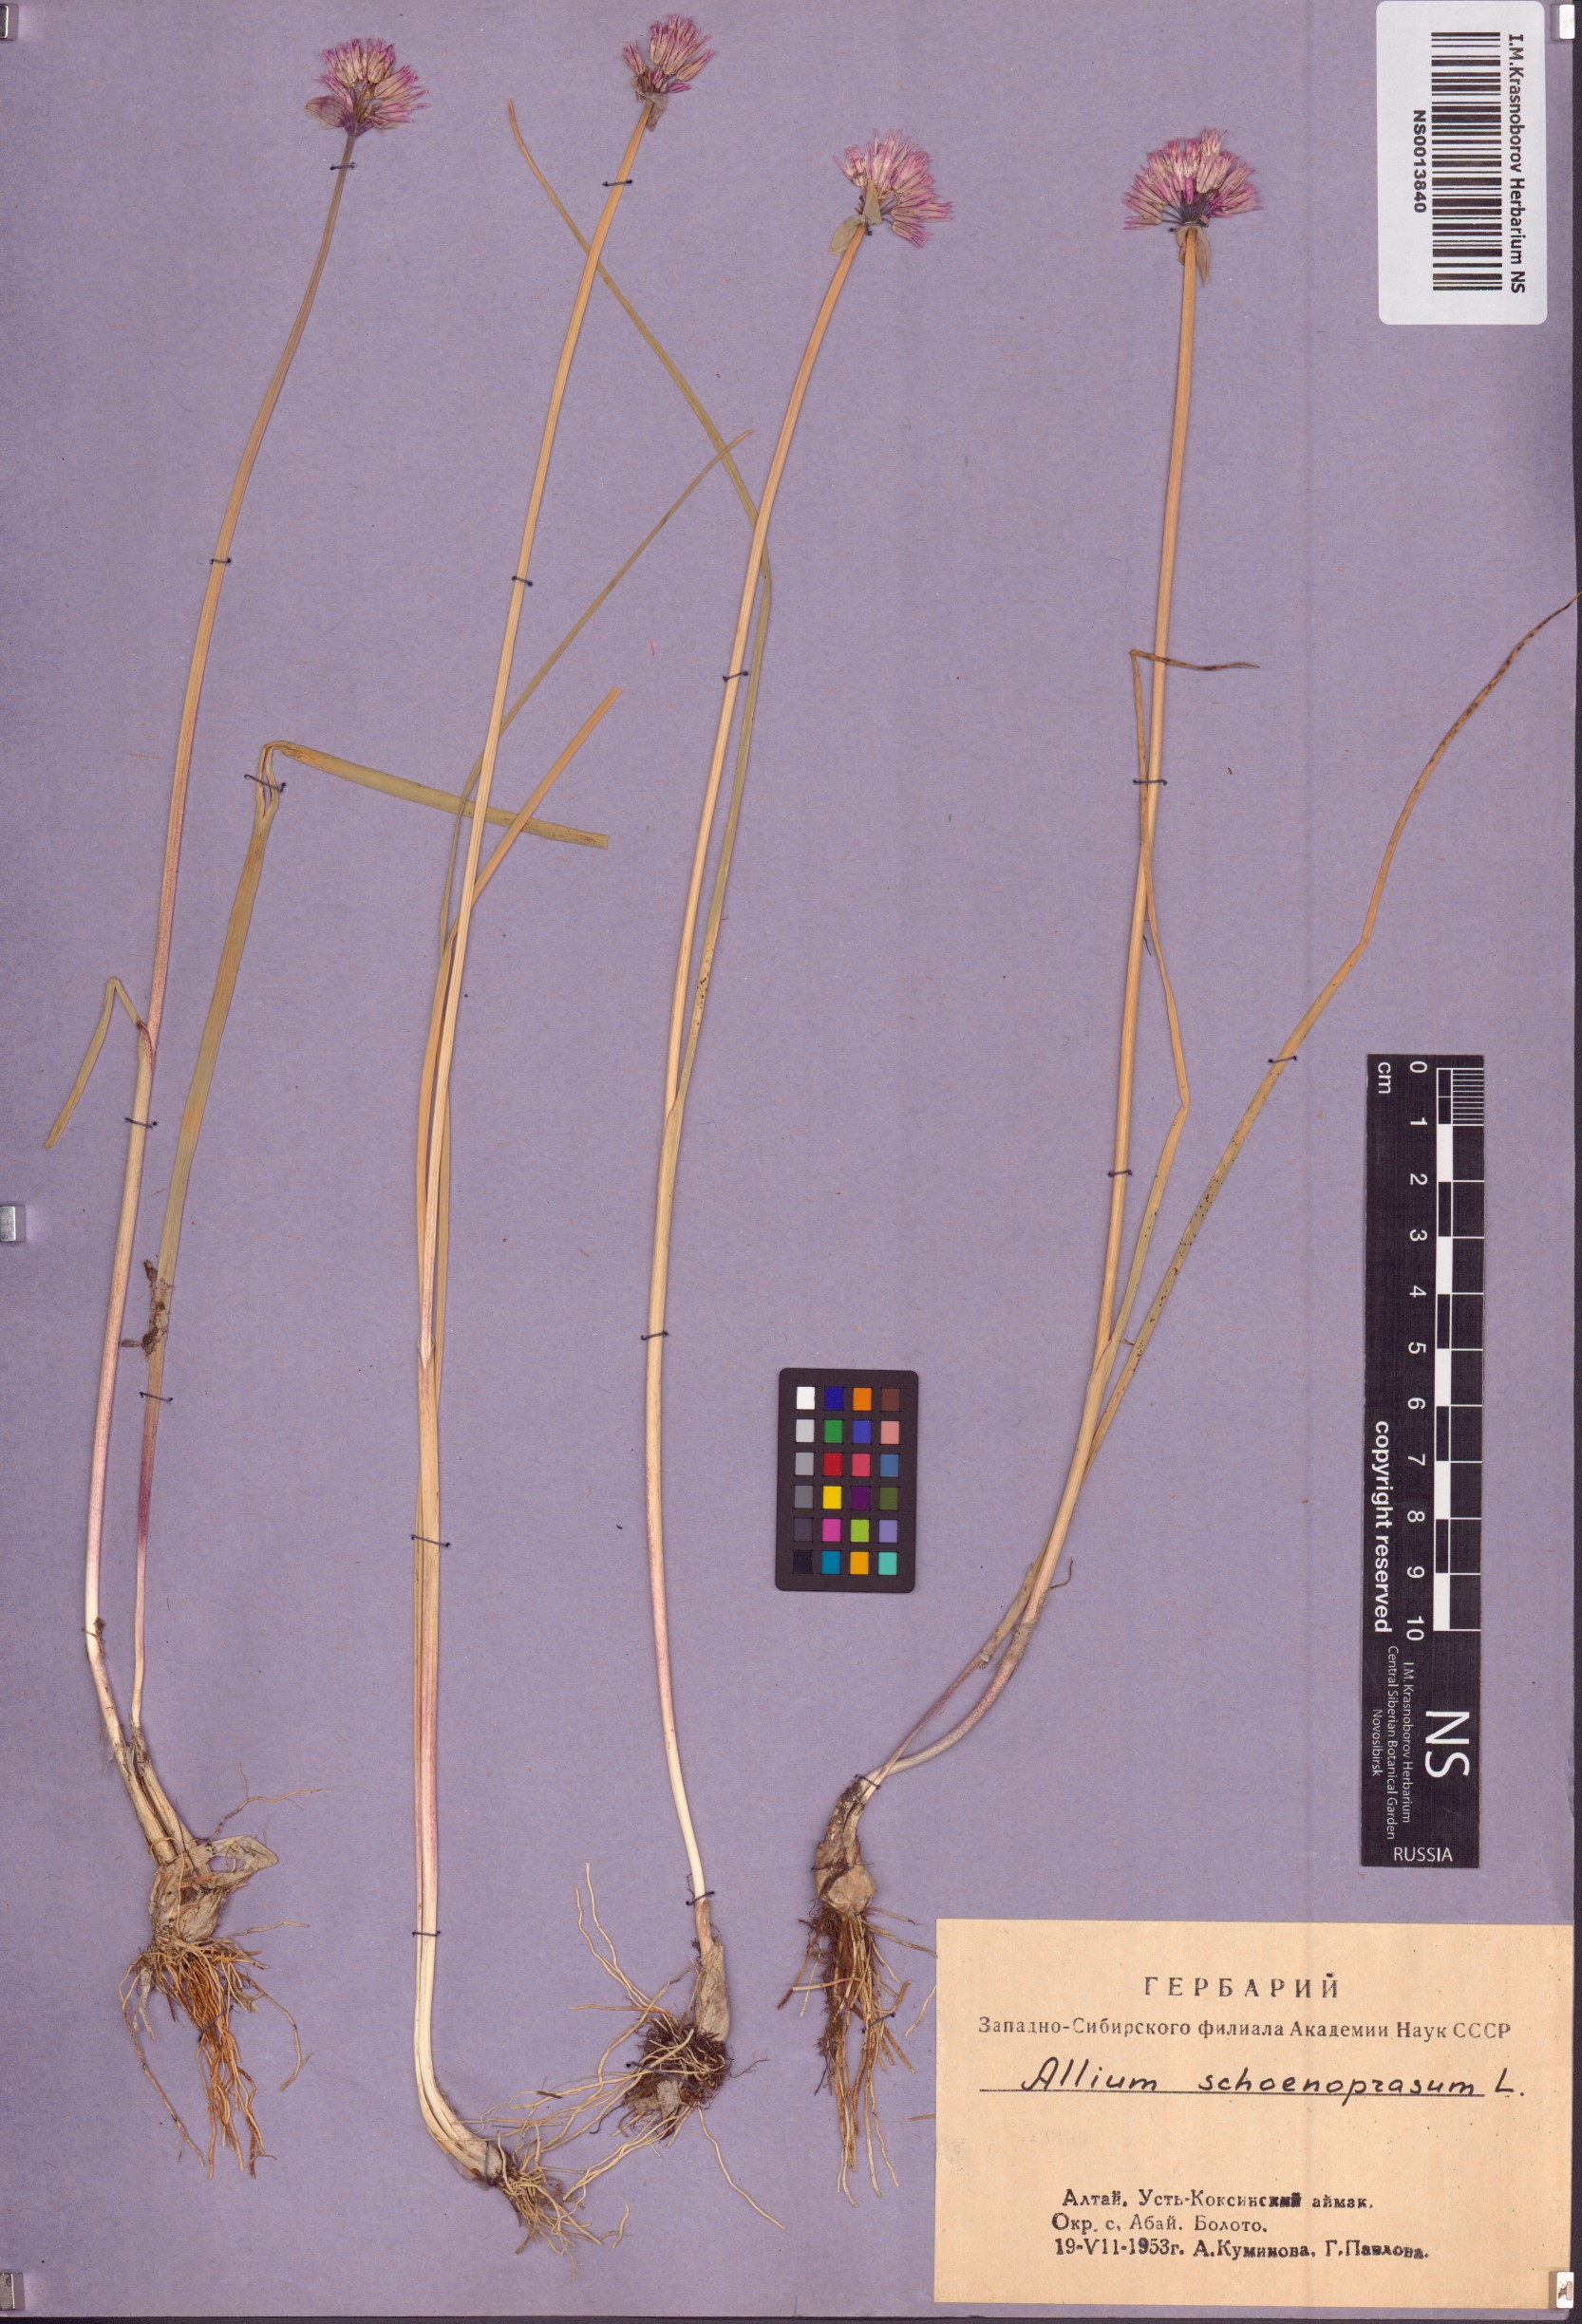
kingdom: Plantae
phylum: Tracheophyta
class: Liliopsida
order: Asparagales
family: Amaryllidaceae
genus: Allium
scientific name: Allium schoenoprasum
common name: Chives
